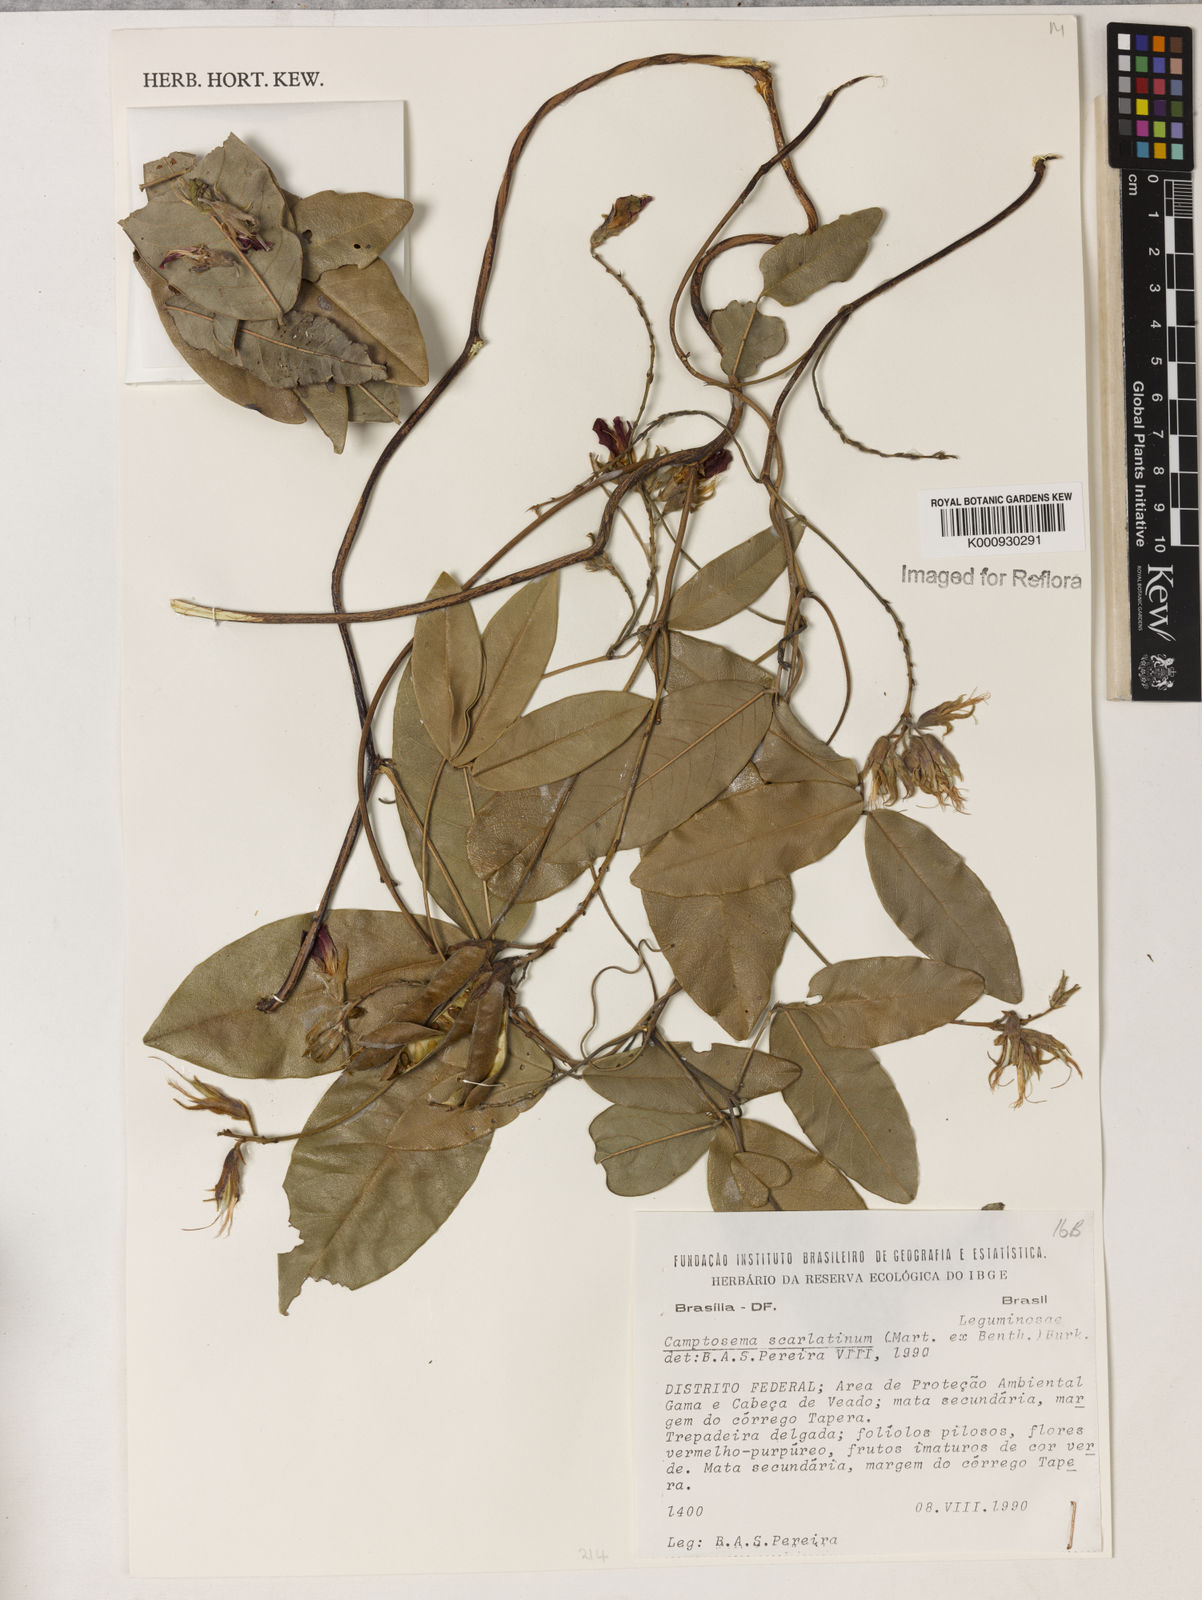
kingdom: Plantae
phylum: Tracheophyta
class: Magnoliopsida
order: Fabales
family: Fabaceae
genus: Betencourtia
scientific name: Betencourtia scarlatina
